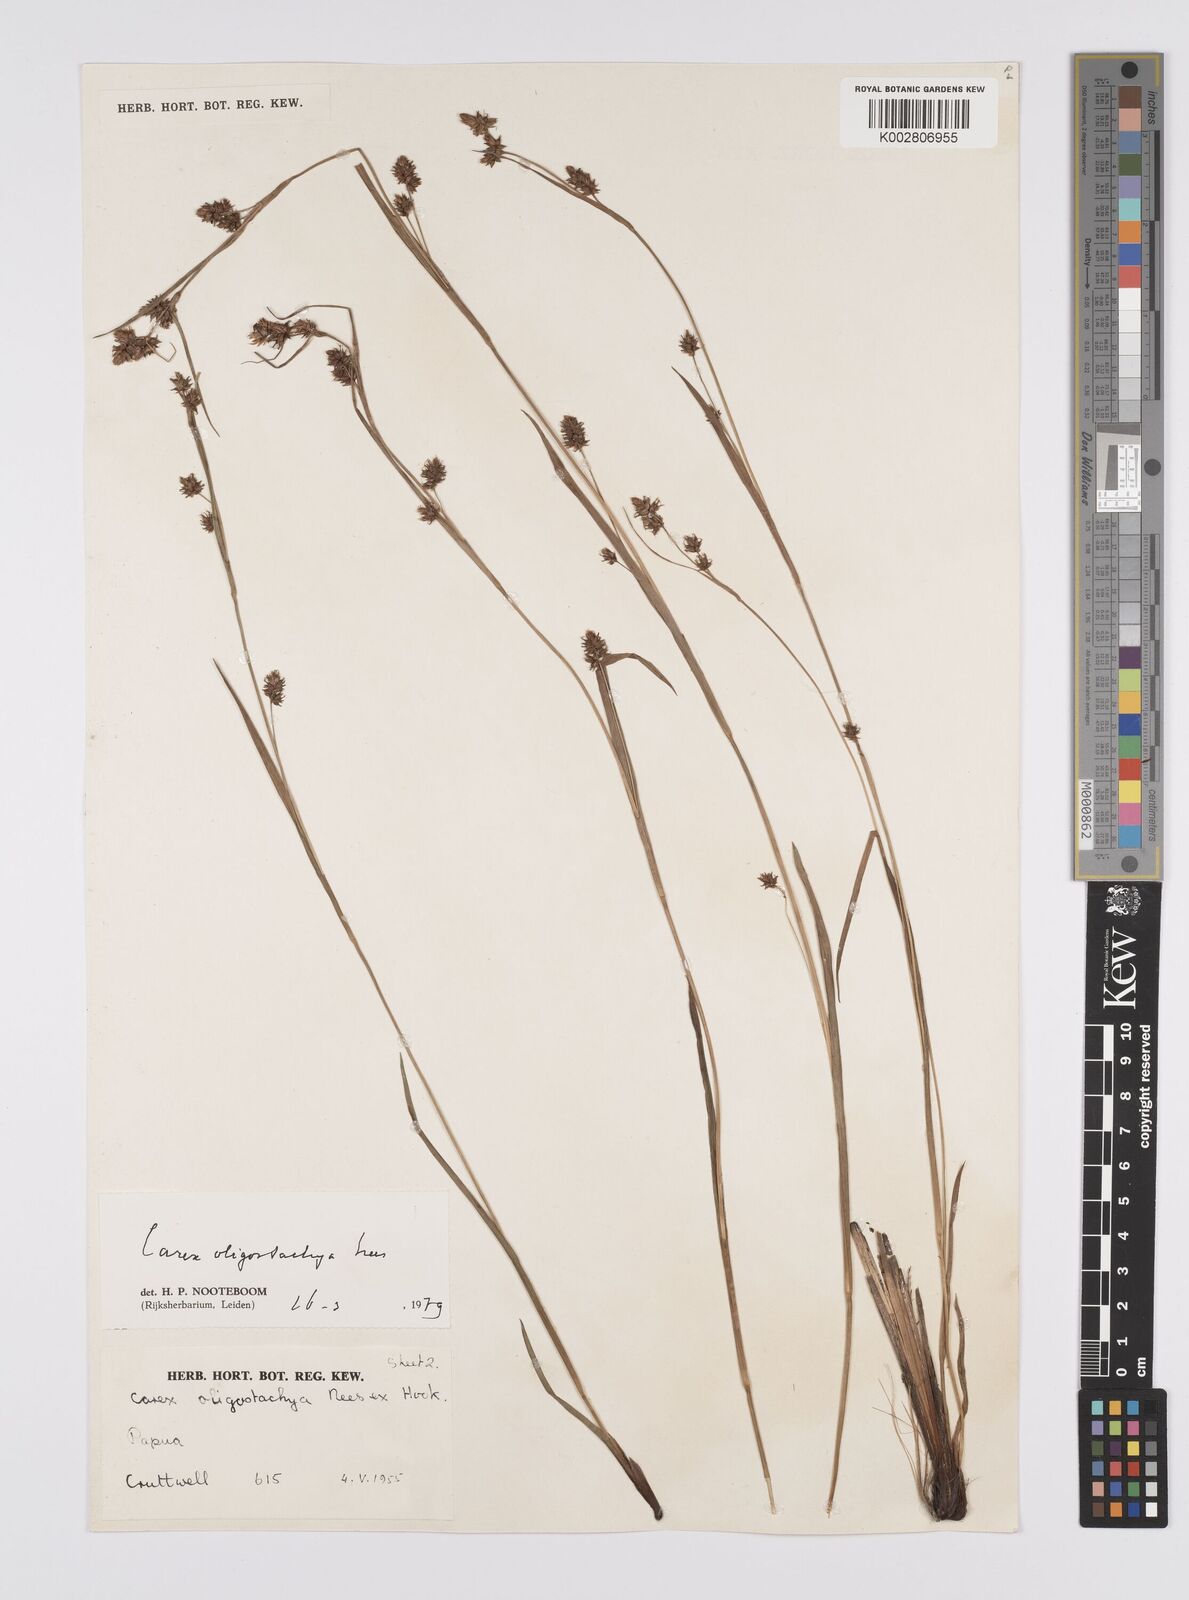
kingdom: Plantae
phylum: Tracheophyta
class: Liliopsida
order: Poales
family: Cyperaceae
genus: Carex
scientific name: Carex oligostachya
